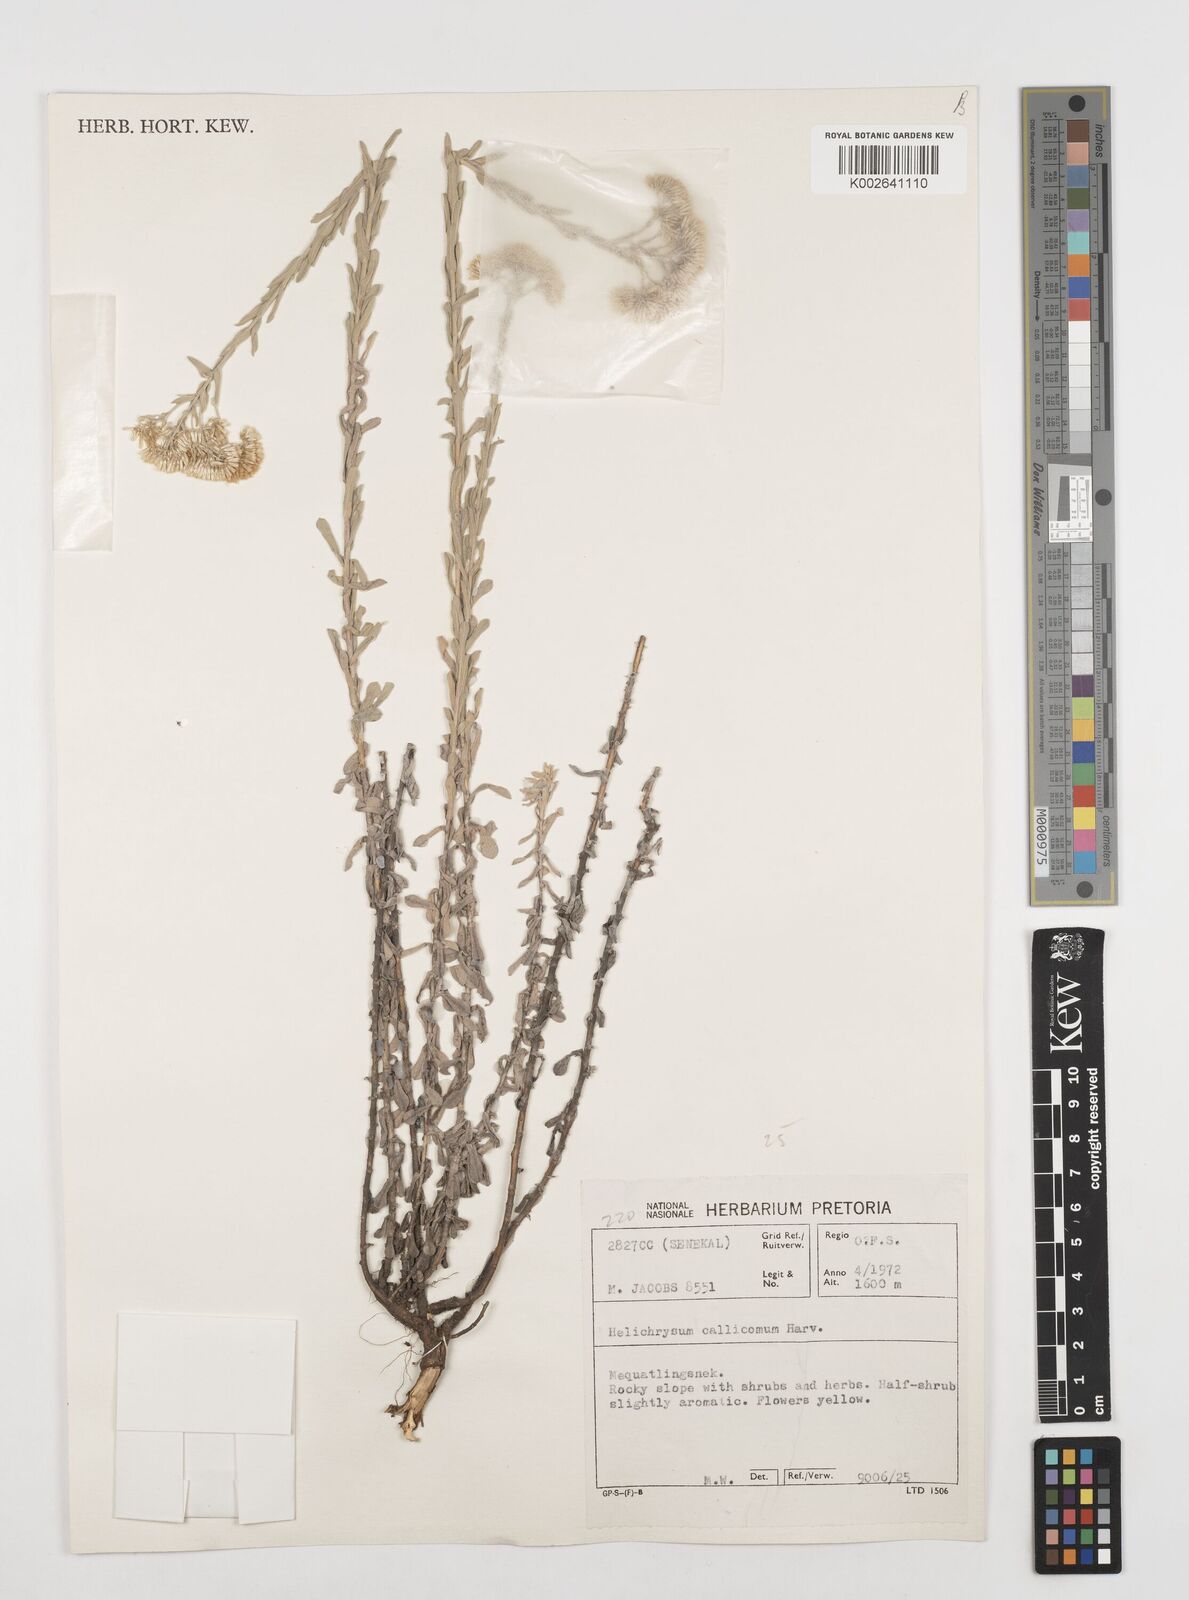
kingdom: Plantae
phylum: Tracheophyta
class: Magnoliopsida
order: Asterales
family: Asteraceae
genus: Helichrysum
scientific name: Helichrysum callicomum
